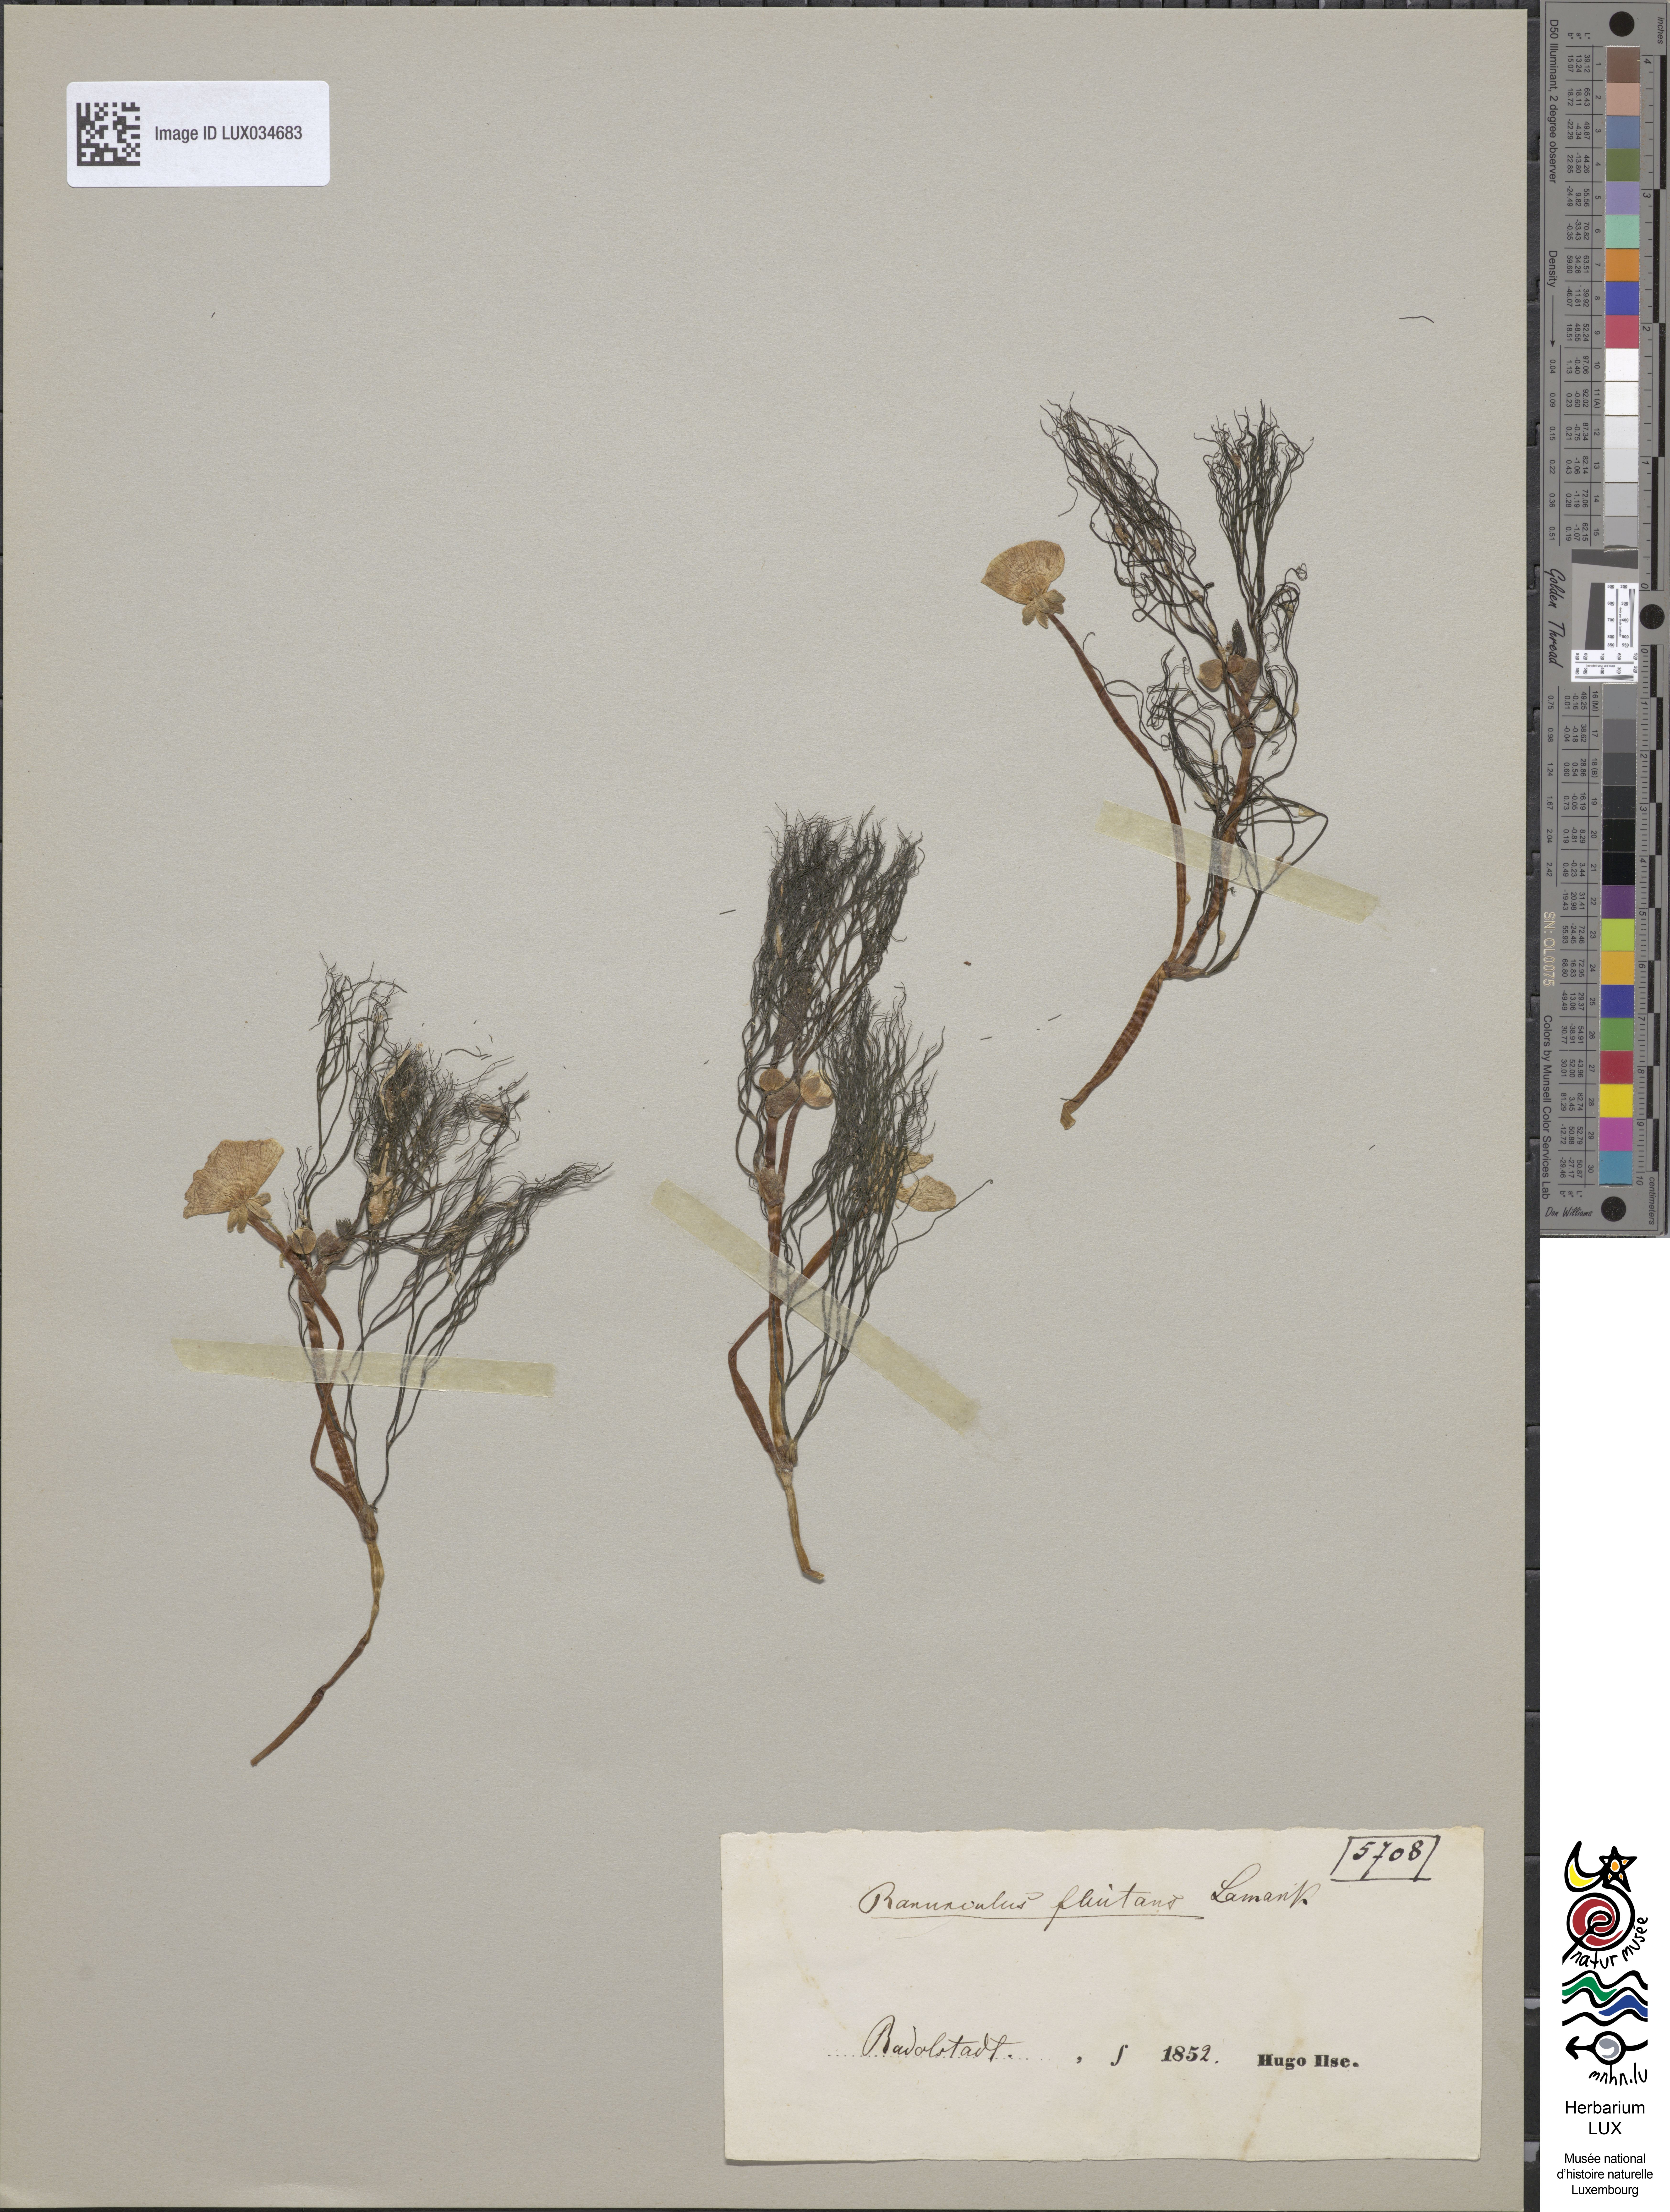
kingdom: Plantae
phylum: Tracheophyta
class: Magnoliopsida
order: Ranunculales
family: Ranunculaceae
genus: Ranunculus
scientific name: Ranunculus fluitans
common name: River water-crowfoot
